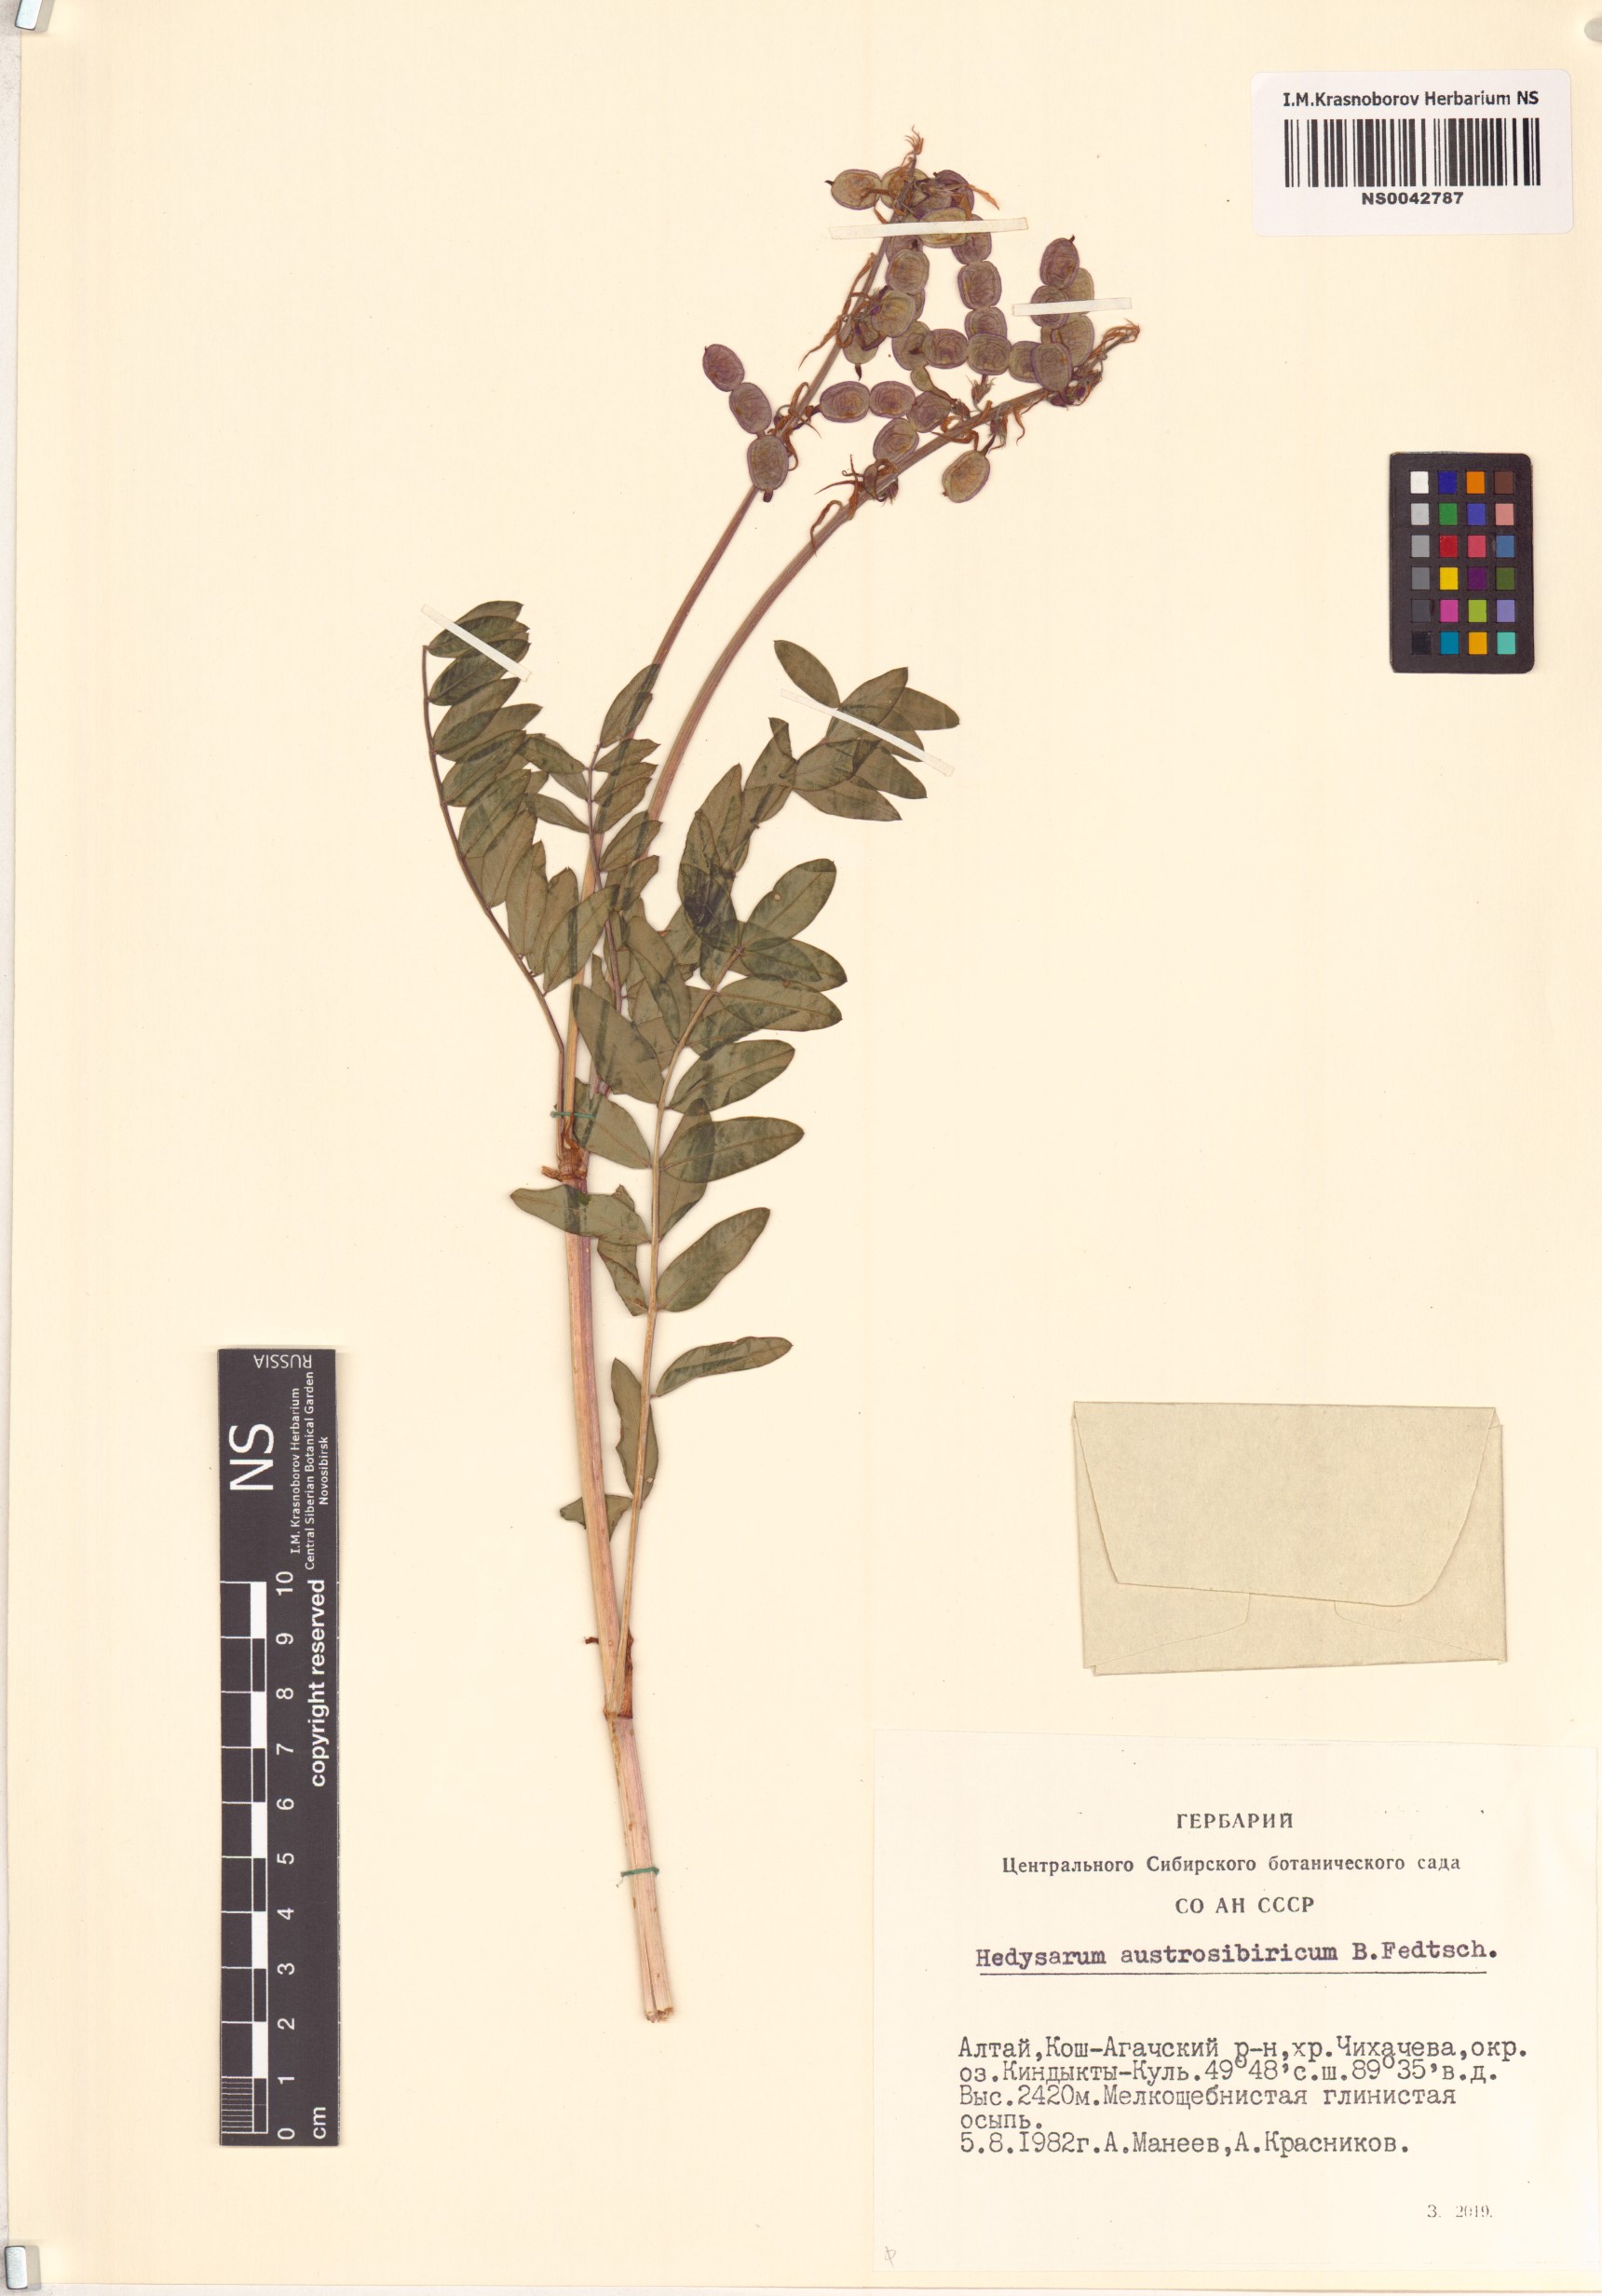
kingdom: Plantae
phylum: Tracheophyta
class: Magnoliopsida
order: Fabales
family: Fabaceae
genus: Hedysarum
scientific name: Hedysarum neglectum
